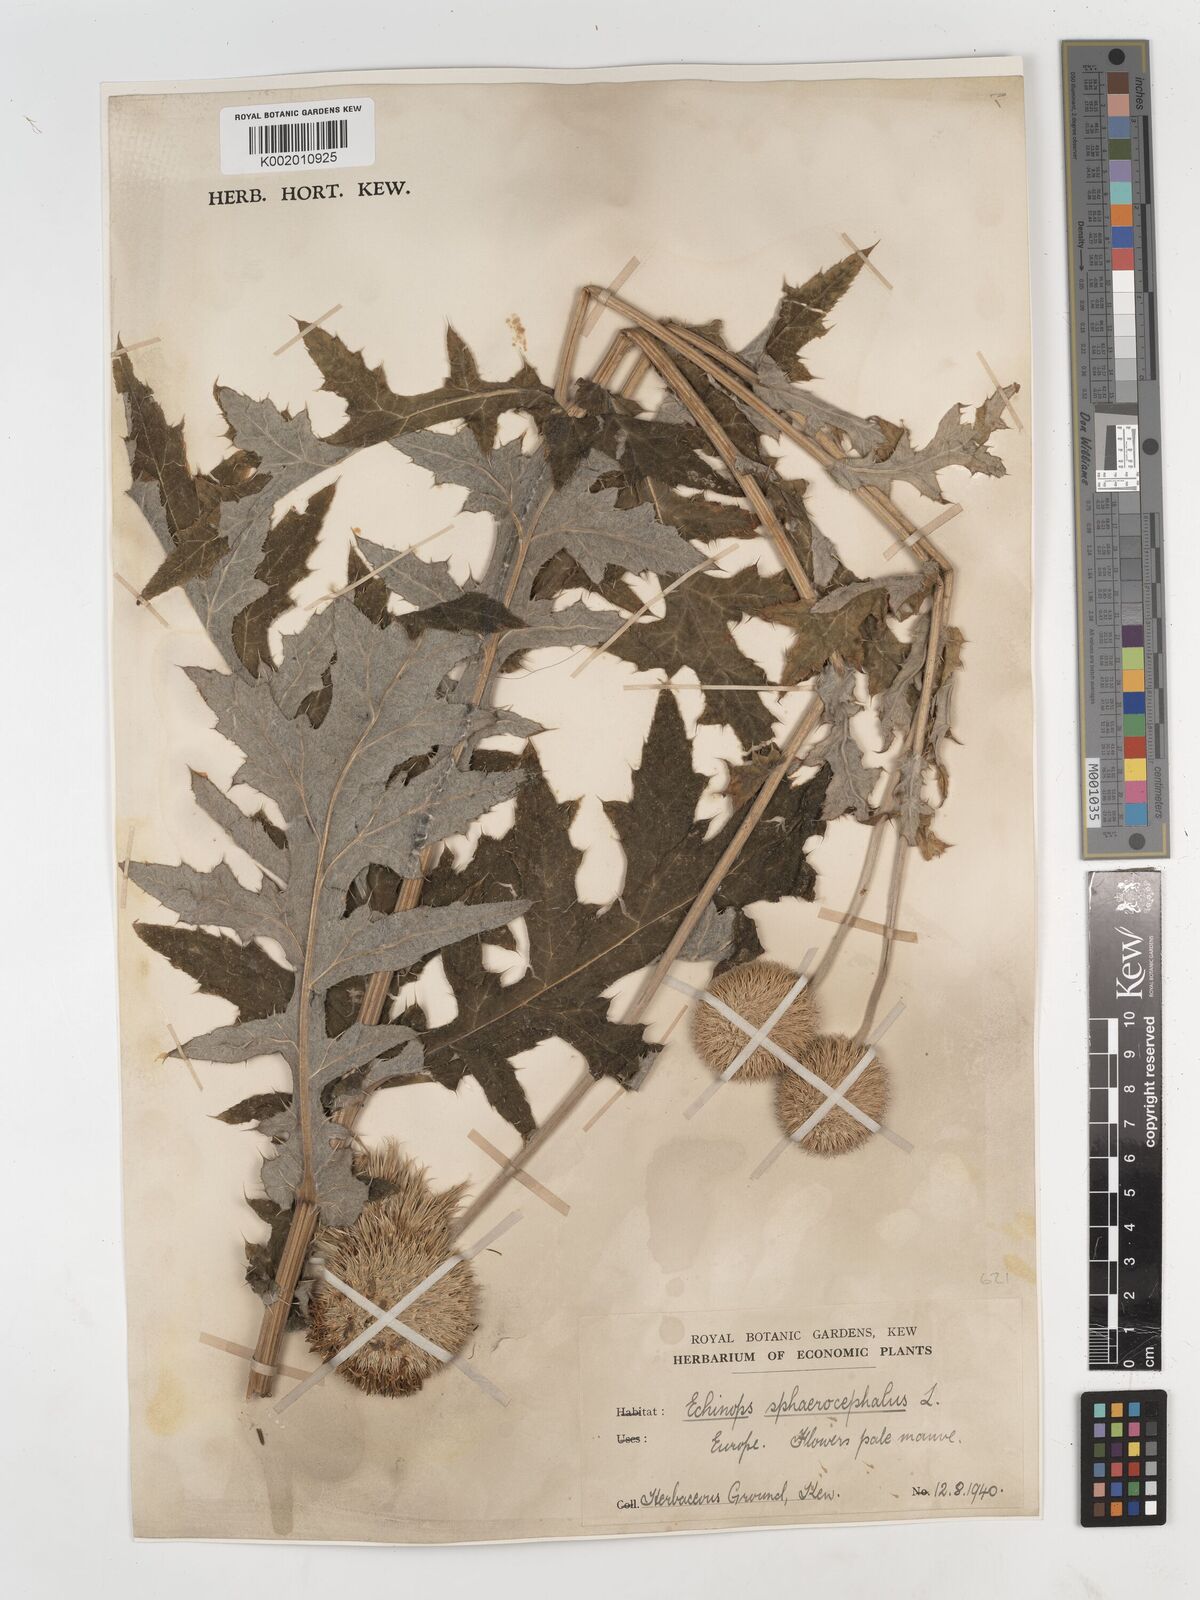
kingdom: Plantae
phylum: Tracheophyta
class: Magnoliopsida
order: Asterales
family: Asteraceae
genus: Echinops
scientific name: Echinops sphaerocephalus
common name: Glandular globe-thistle
